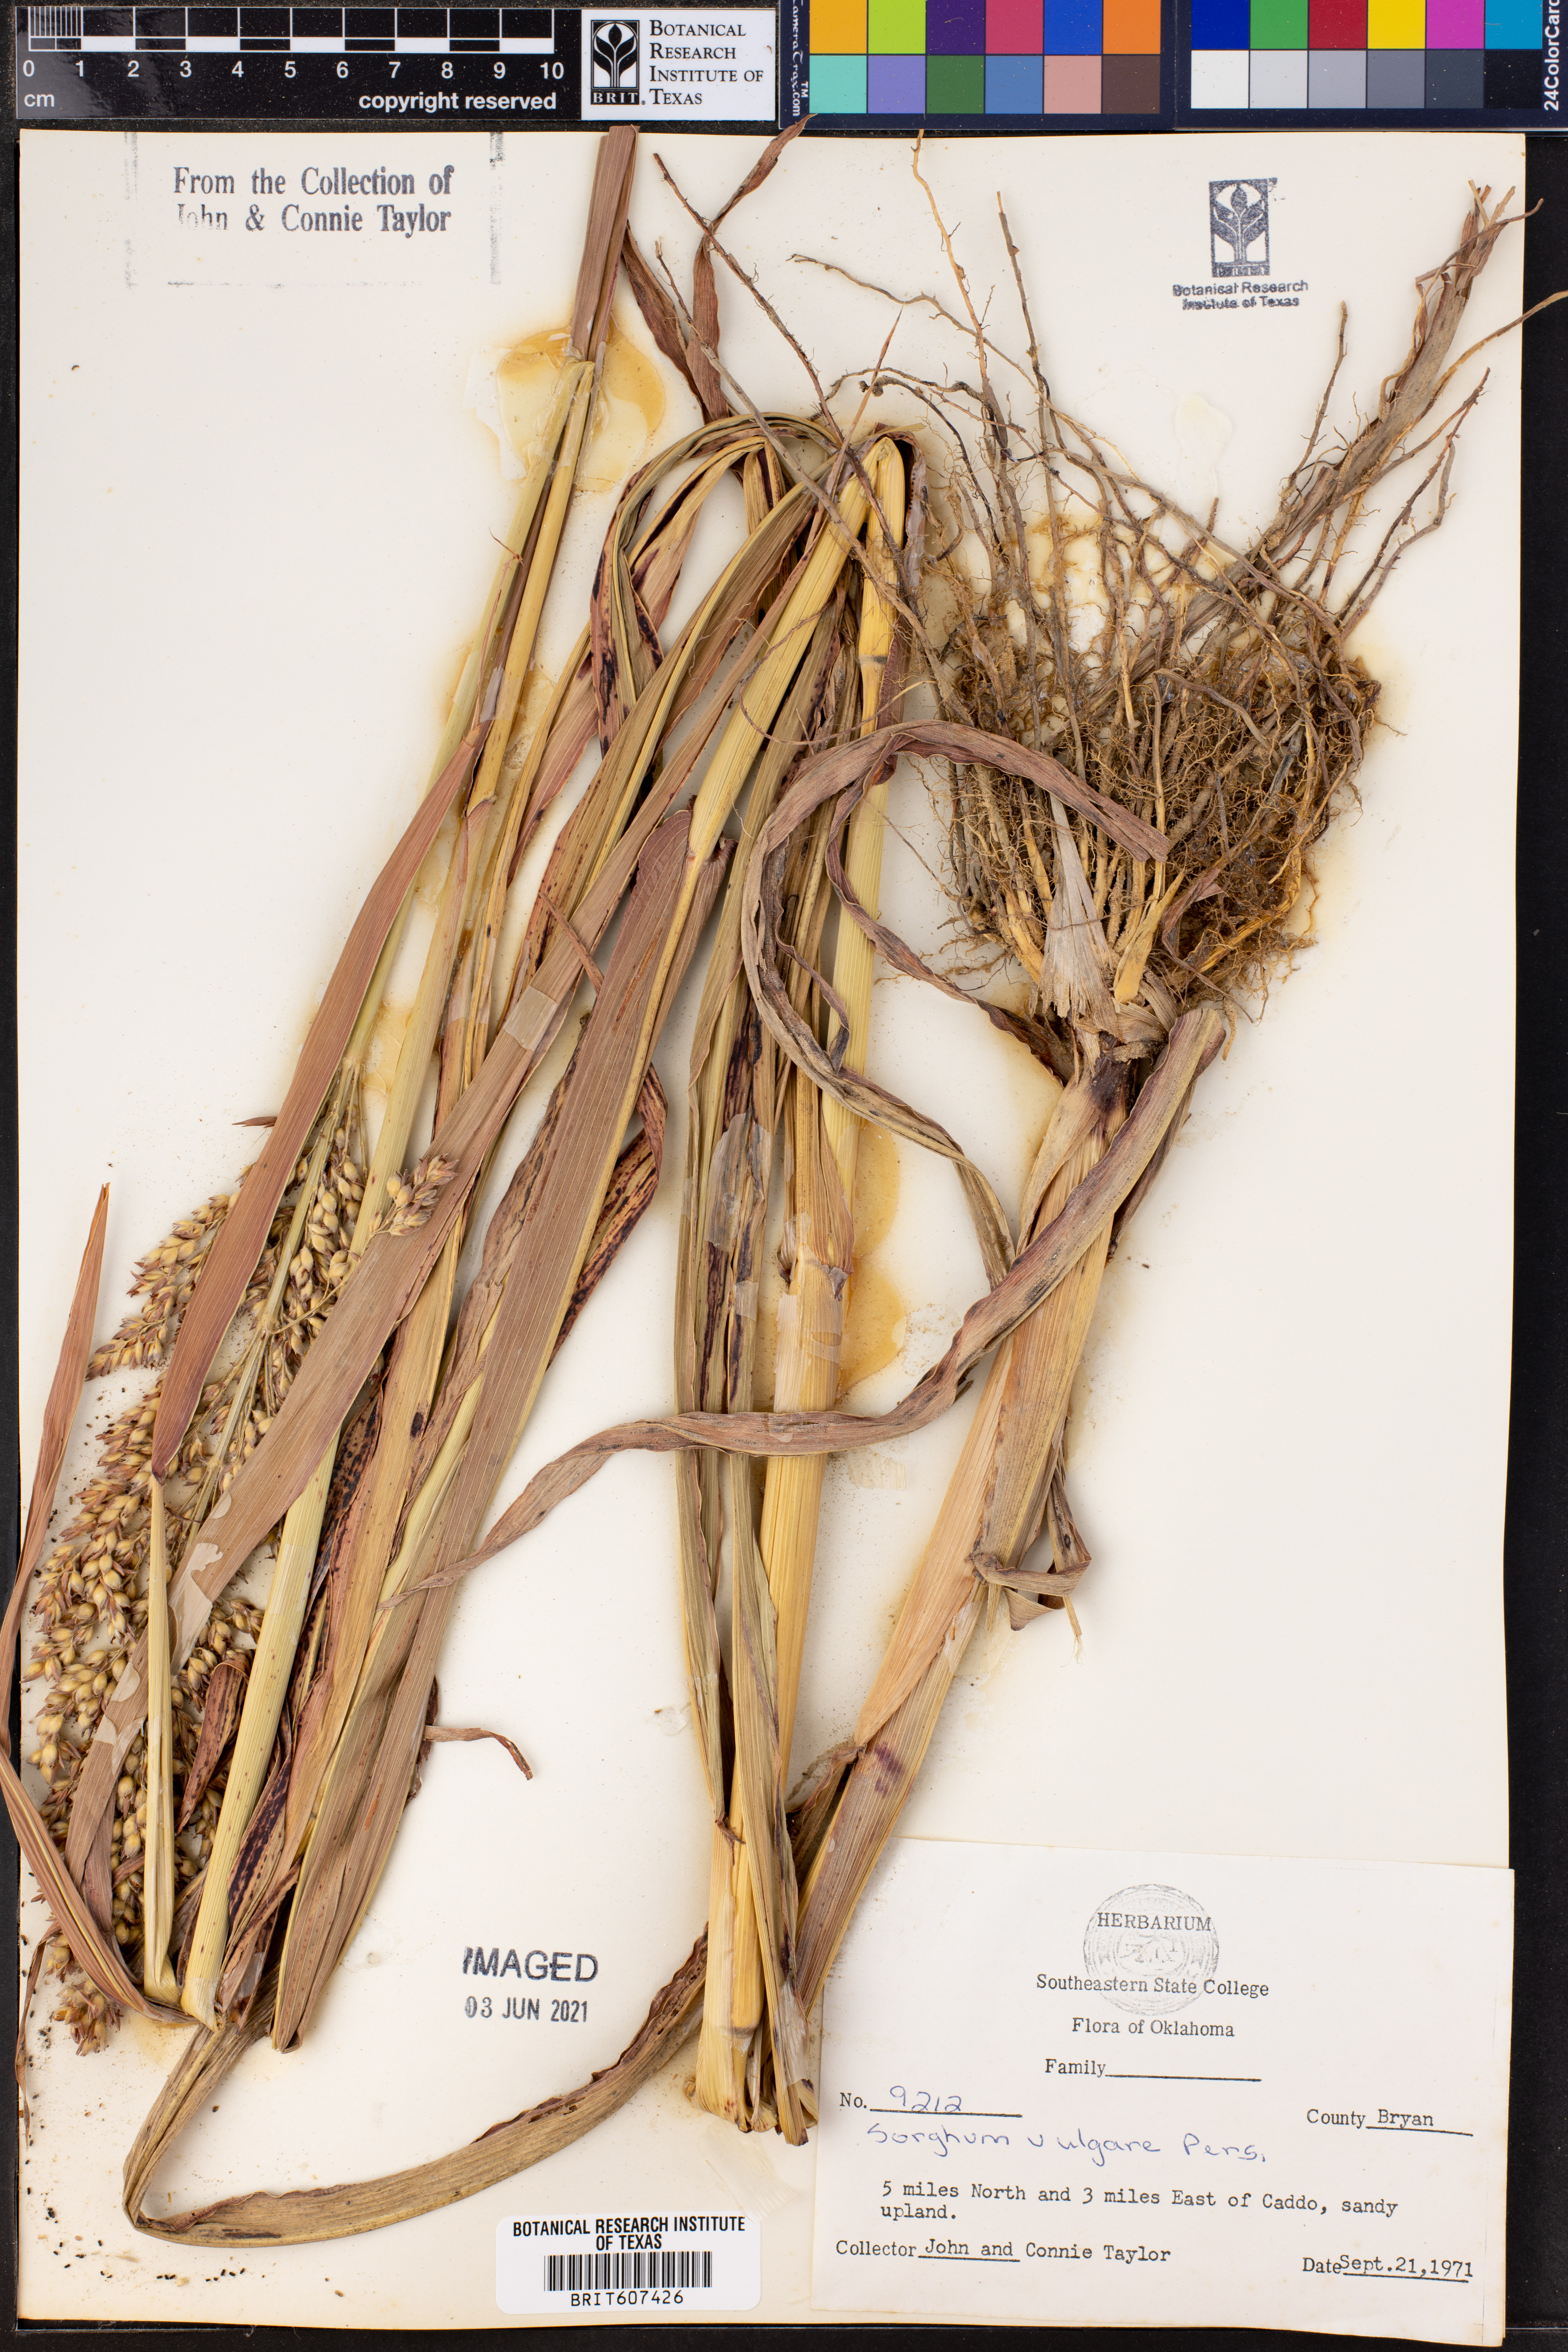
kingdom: Plantae
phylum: Tracheophyta
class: Liliopsida
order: Poales
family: Poaceae
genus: Sorghum
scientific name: Sorghum bicolor
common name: Sorghum
